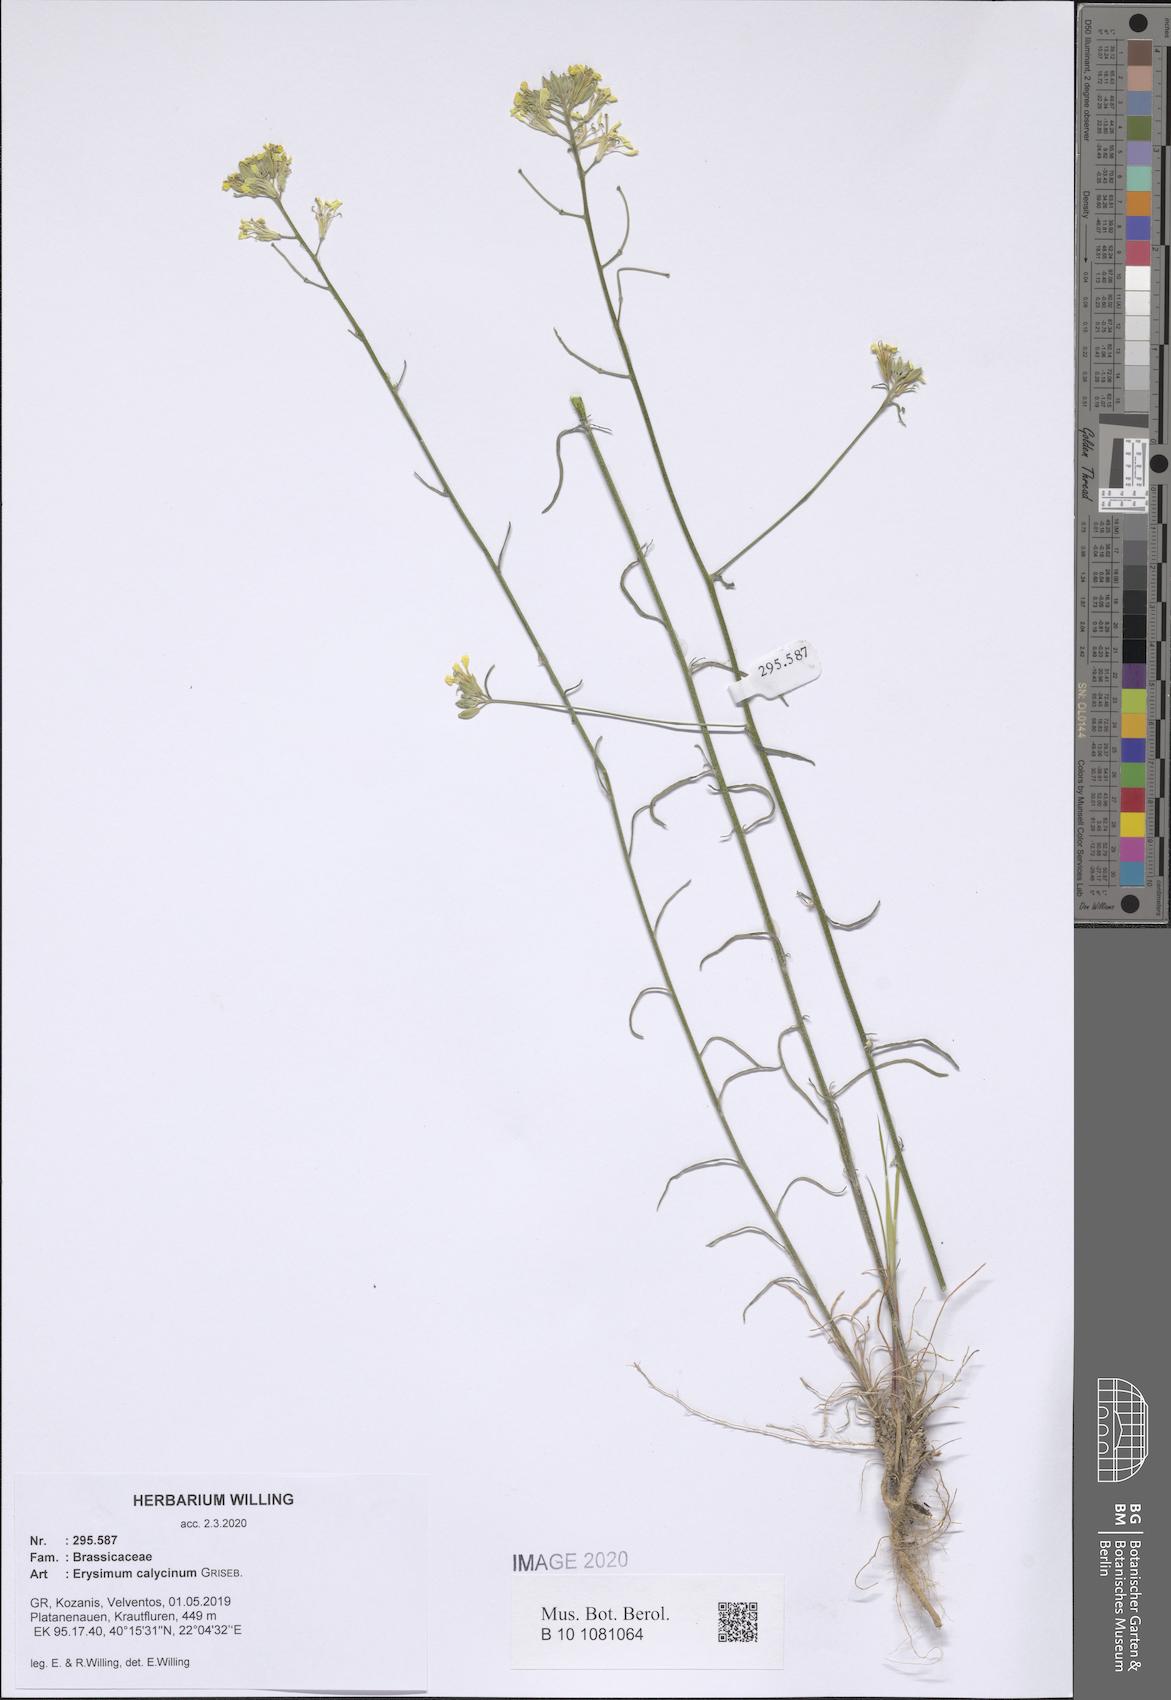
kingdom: Plantae
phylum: Tracheophyta
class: Magnoliopsida
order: Brassicales
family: Brassicaceae
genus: Erysimum
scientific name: Erysimum calycinum
